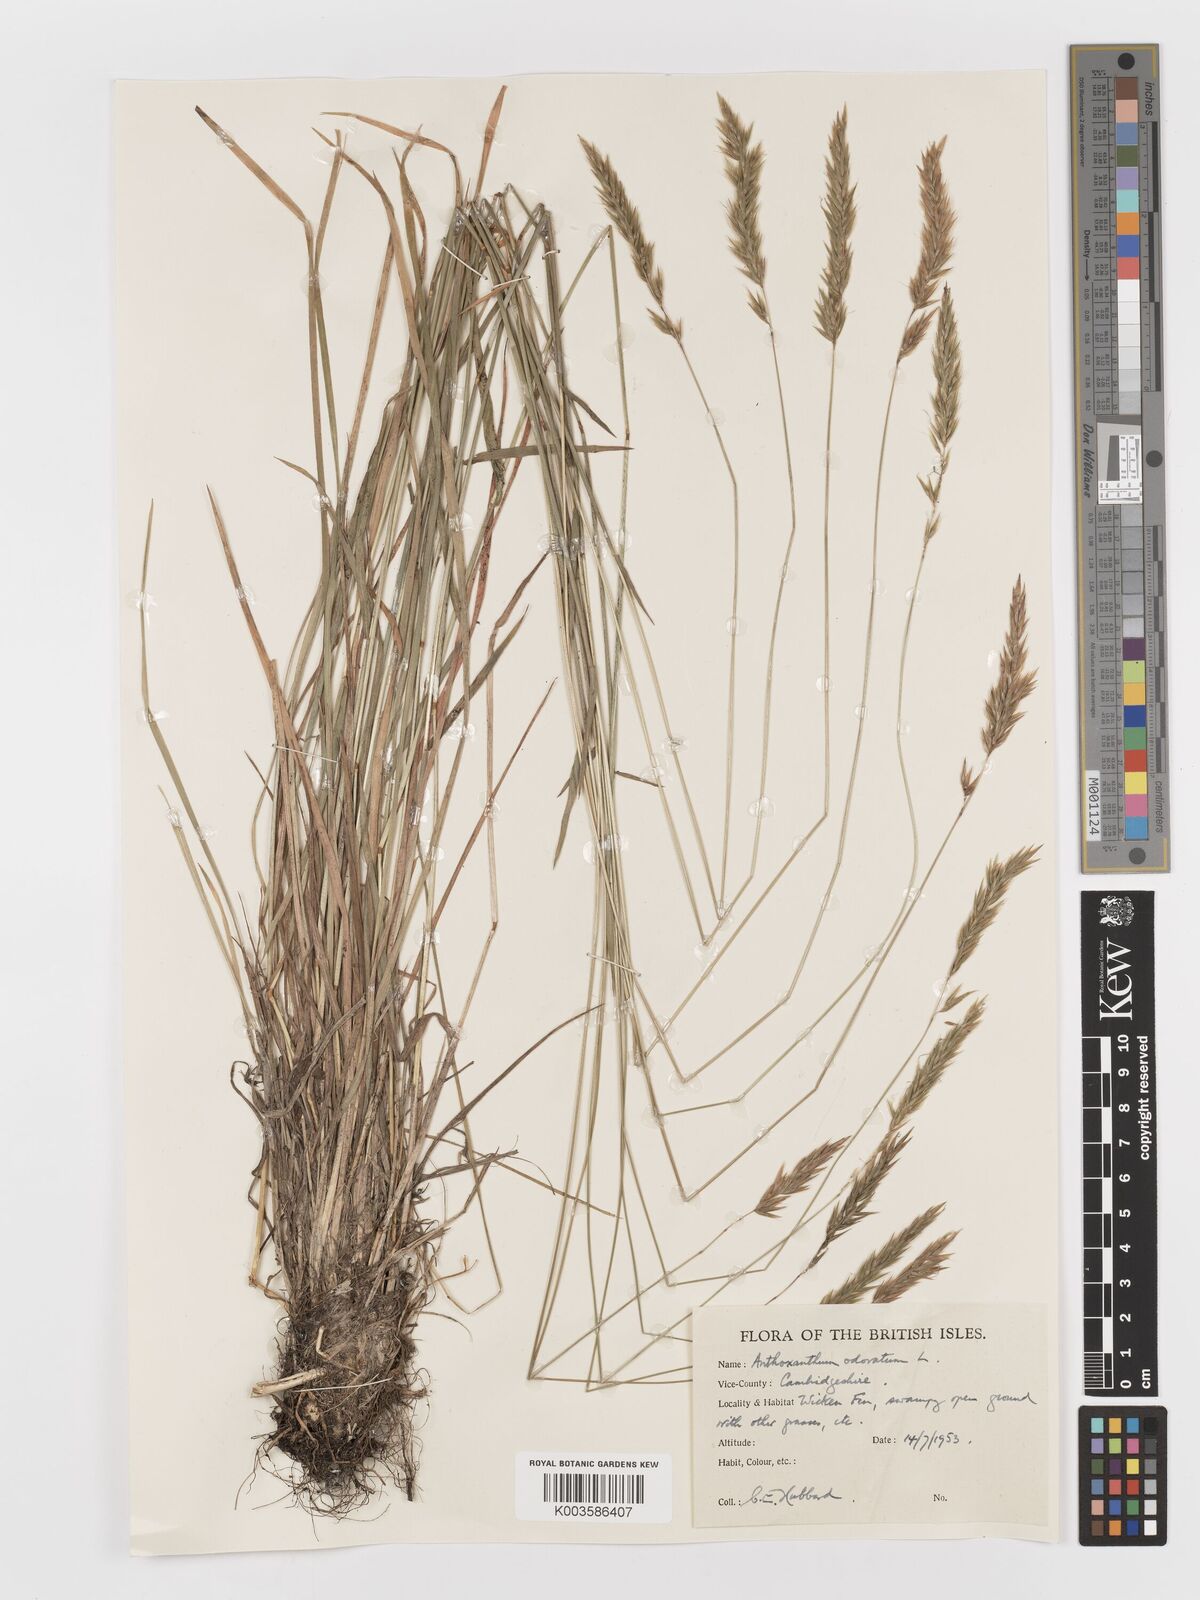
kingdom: Plantae
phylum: Tracheophyta
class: Liliopsida
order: Poales
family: Poaceae
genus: Anthoxanthum
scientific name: Anthoxanthum odoratum
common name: Sweet vernalgrass
